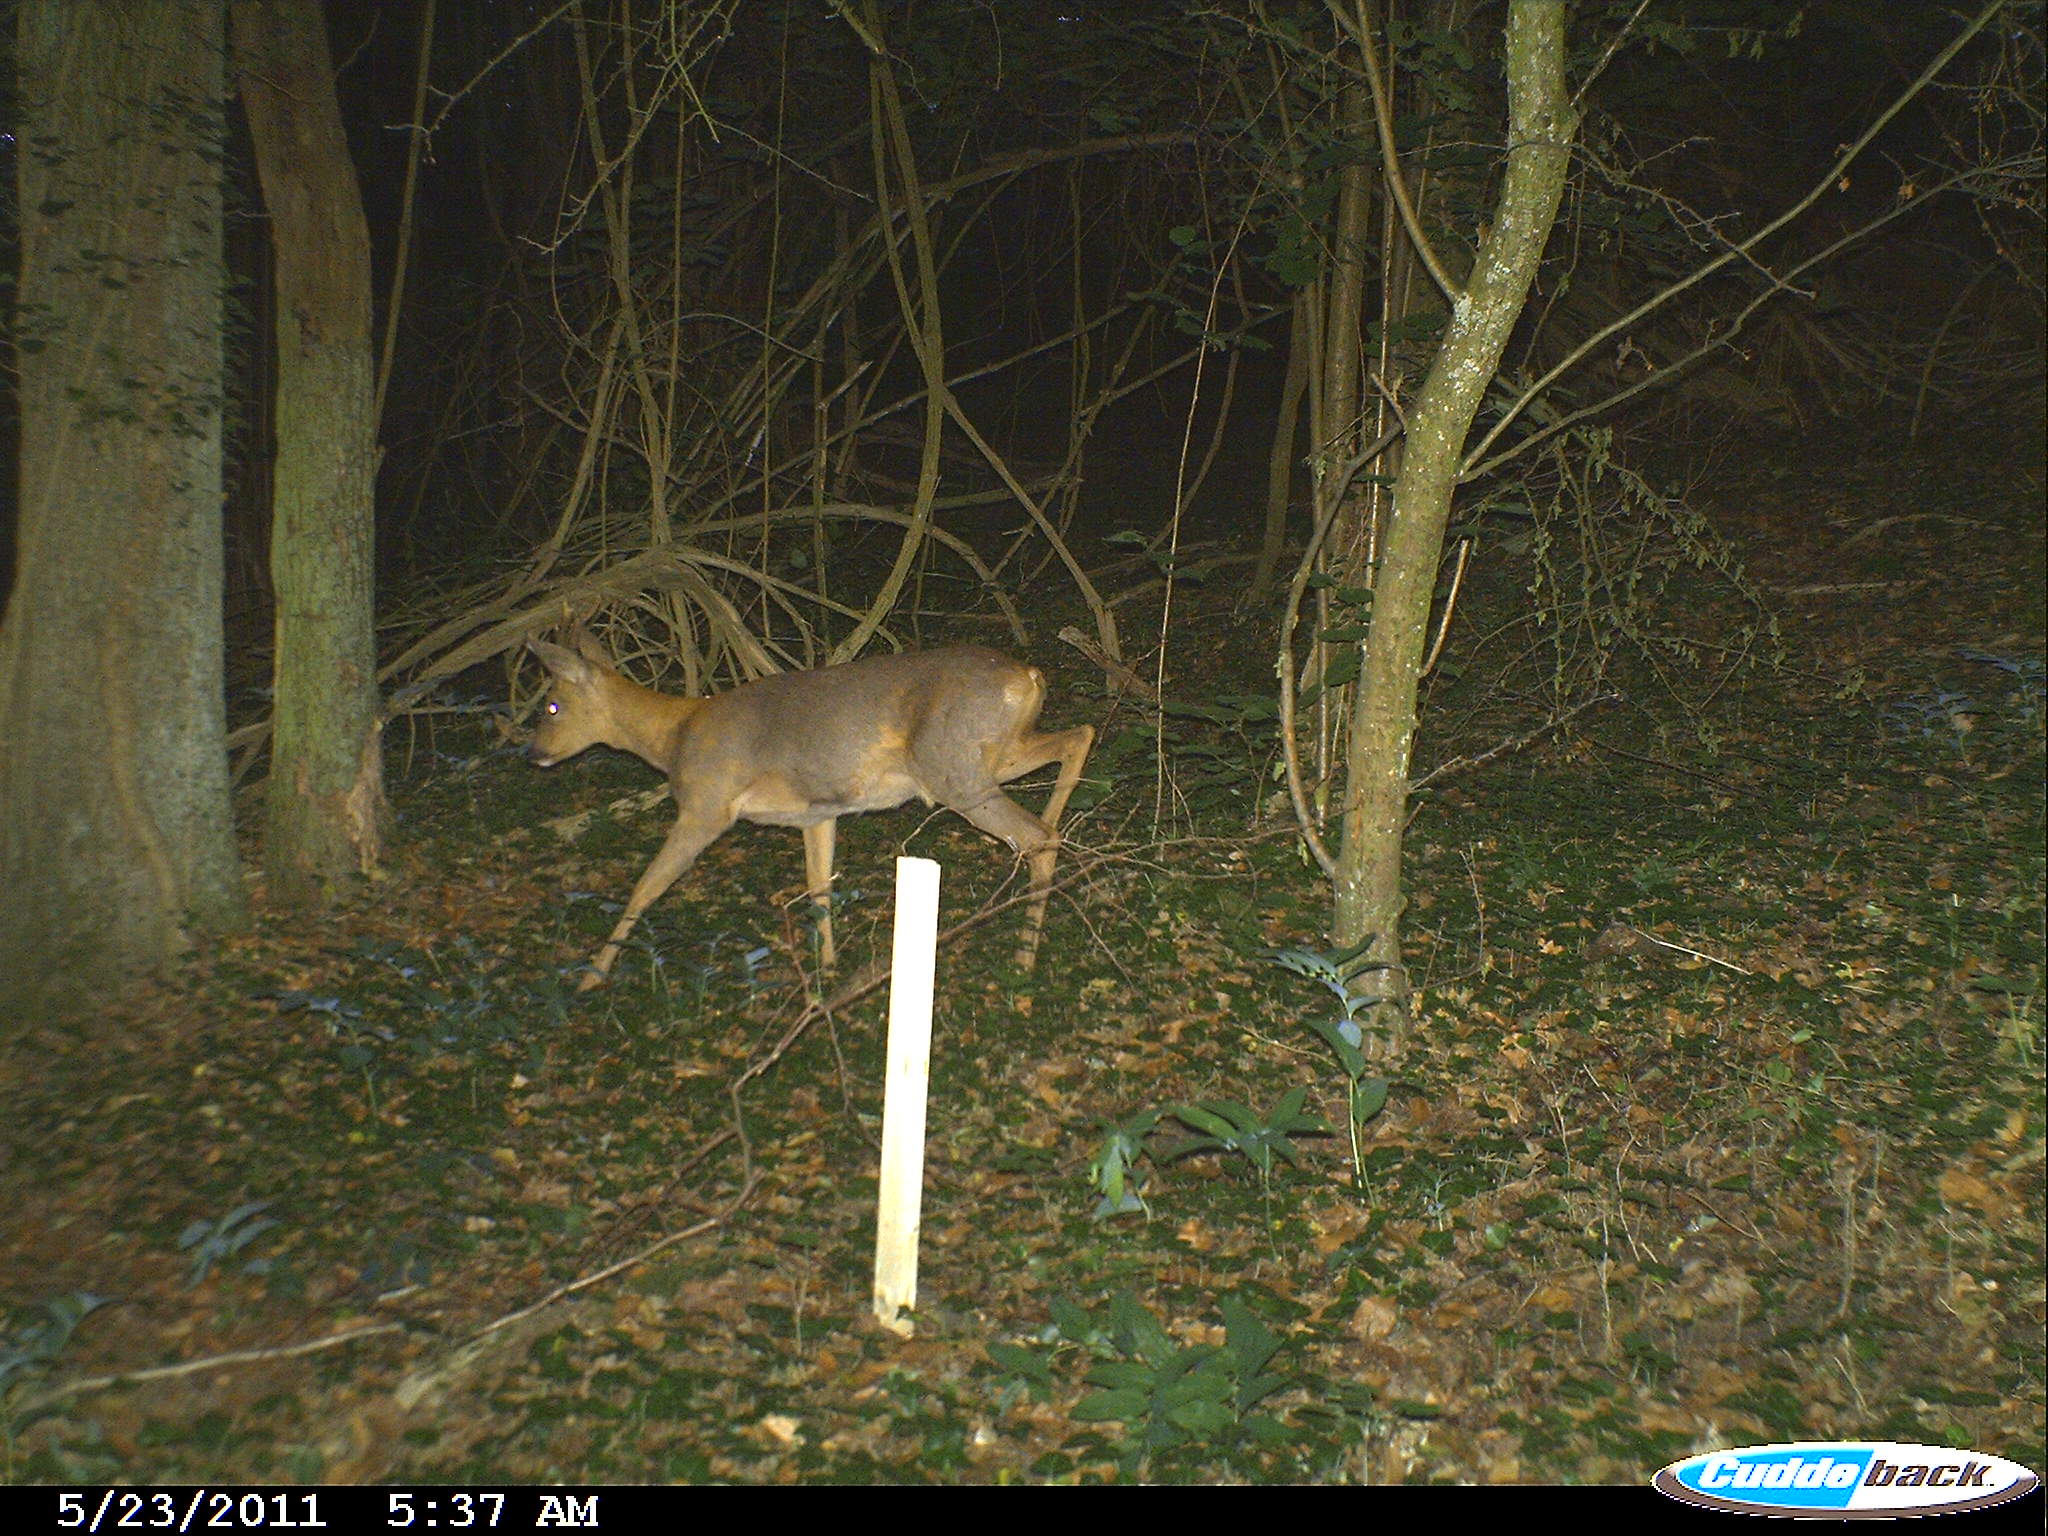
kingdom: Animalia
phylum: Chordata
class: Mammalia
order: Artiodactyla
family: Cervidae
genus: Capreolus
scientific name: Capreolus capreolus
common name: Western roe deer
